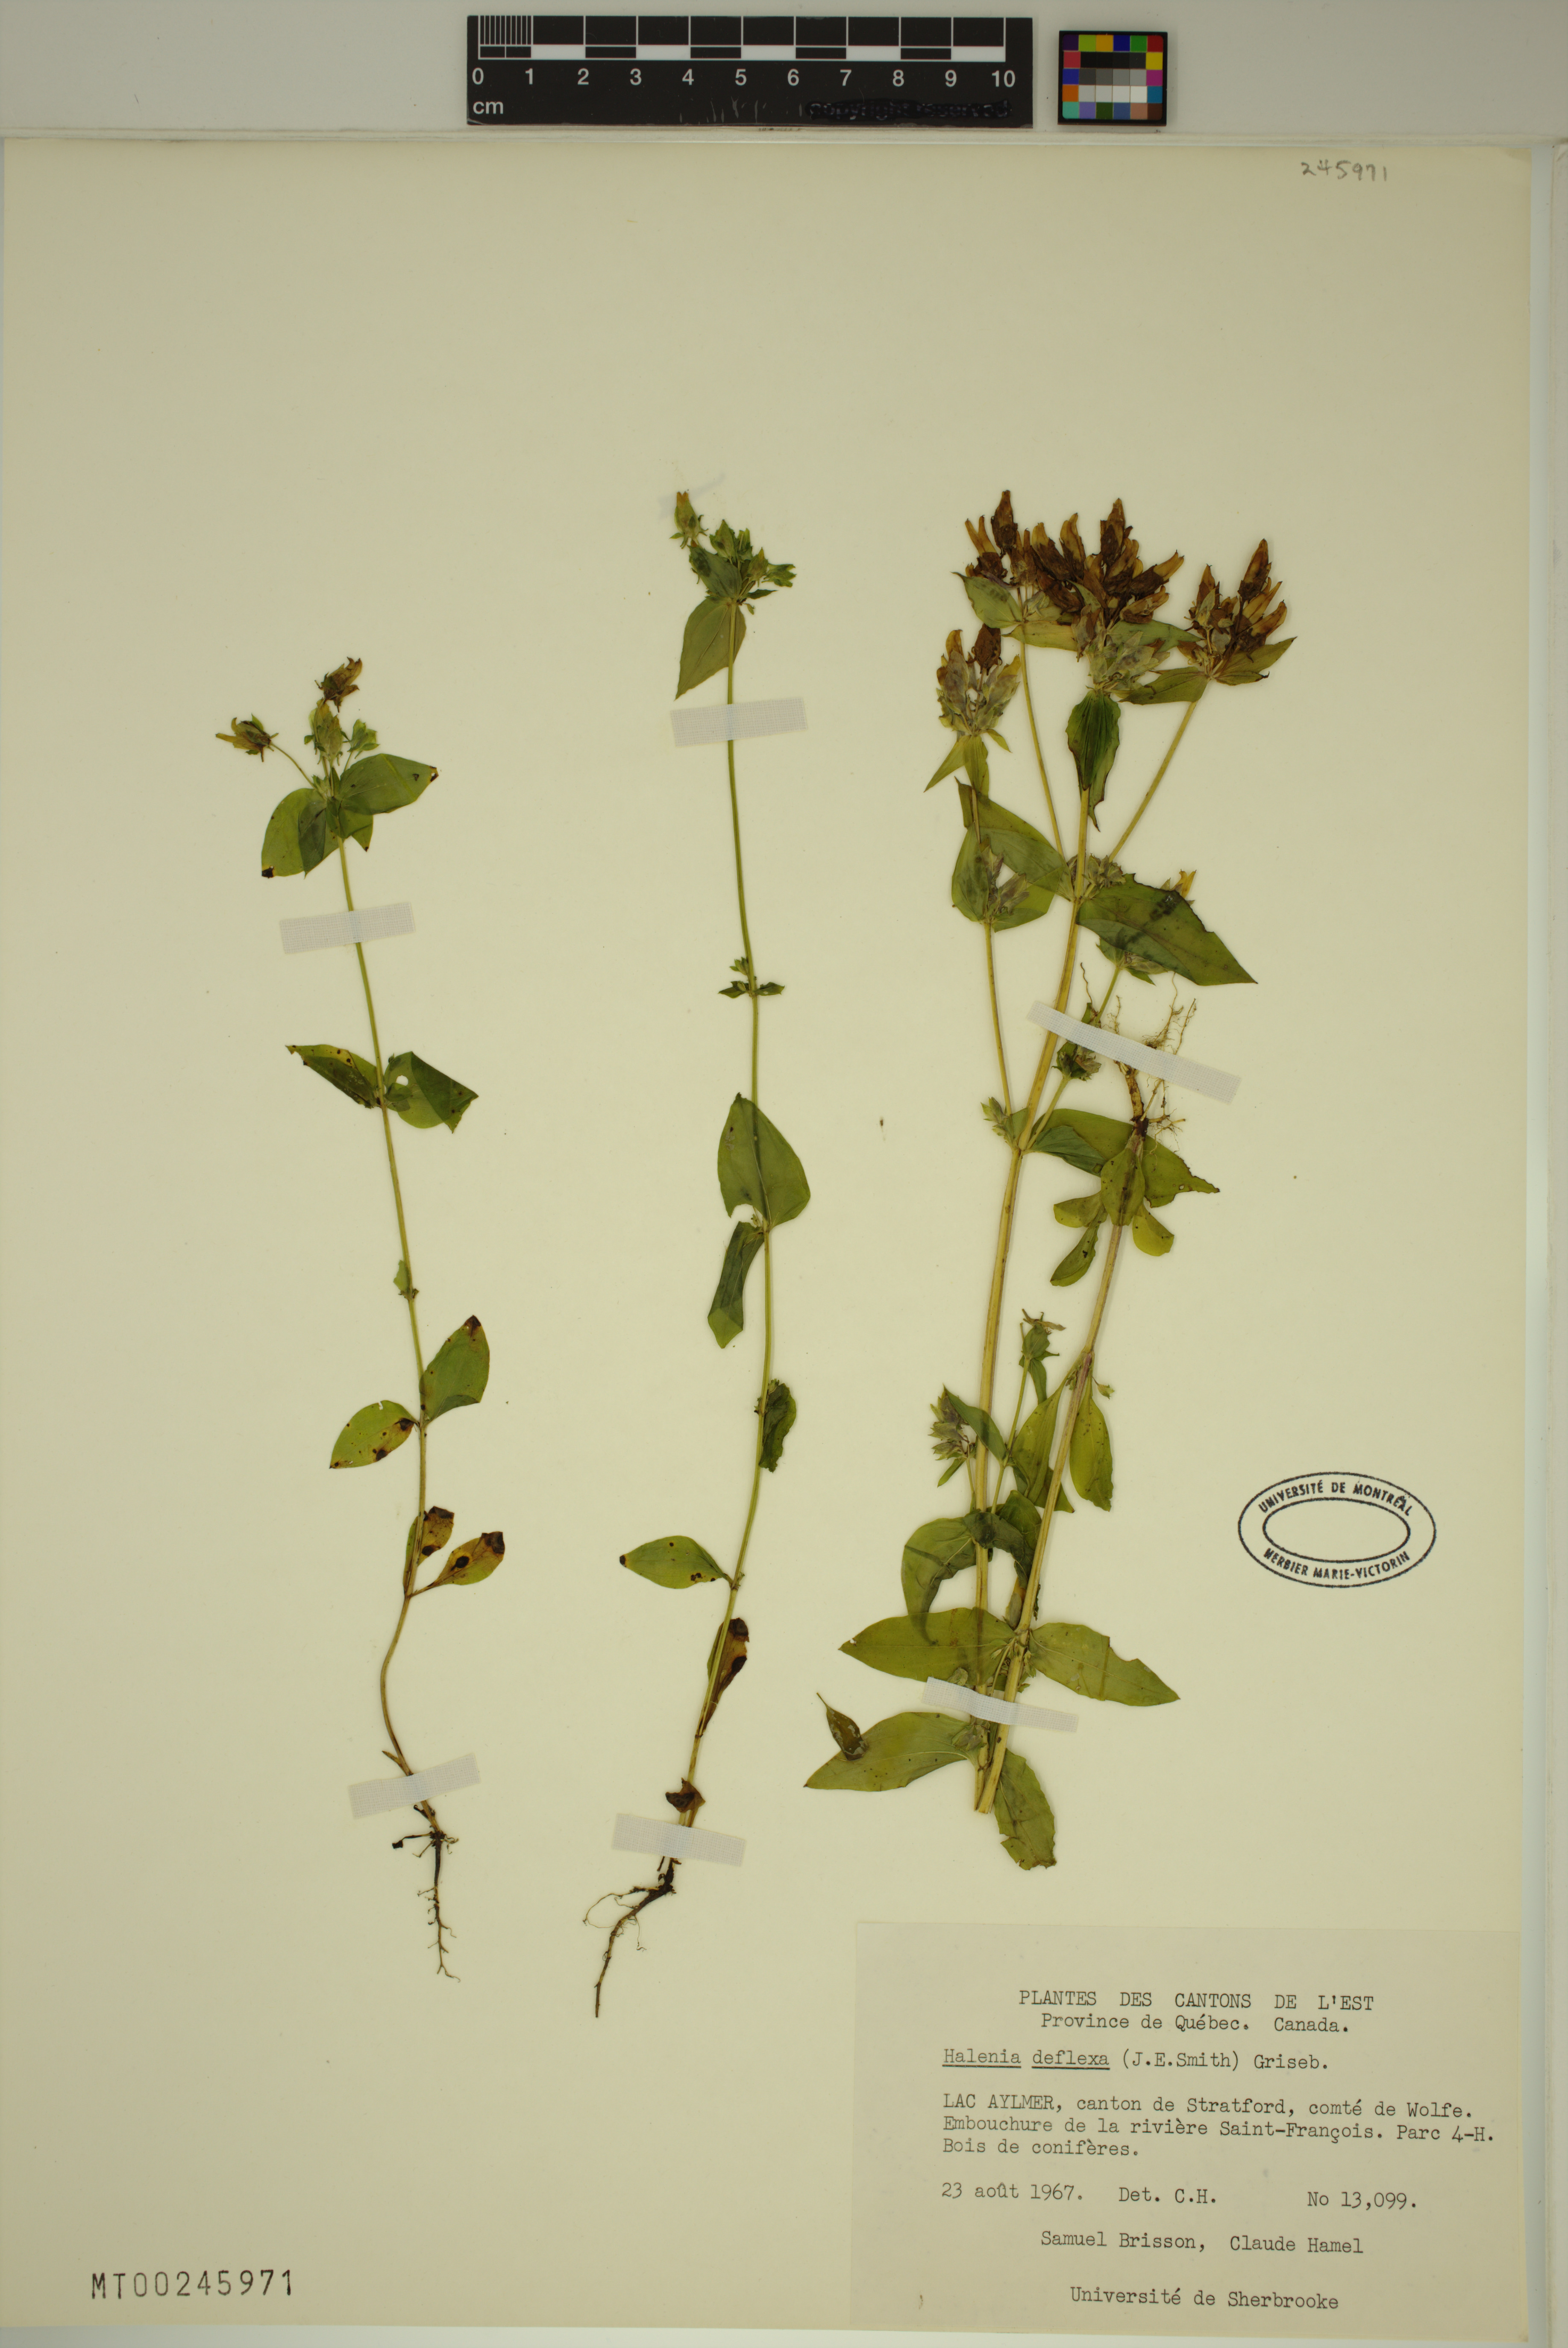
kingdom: Plantae
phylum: Tracheophyta
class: Magnoliopsida
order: Gentianales
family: Gentianaceae
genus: Halenia
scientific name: Halenia deflexa
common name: American spurred gentian
